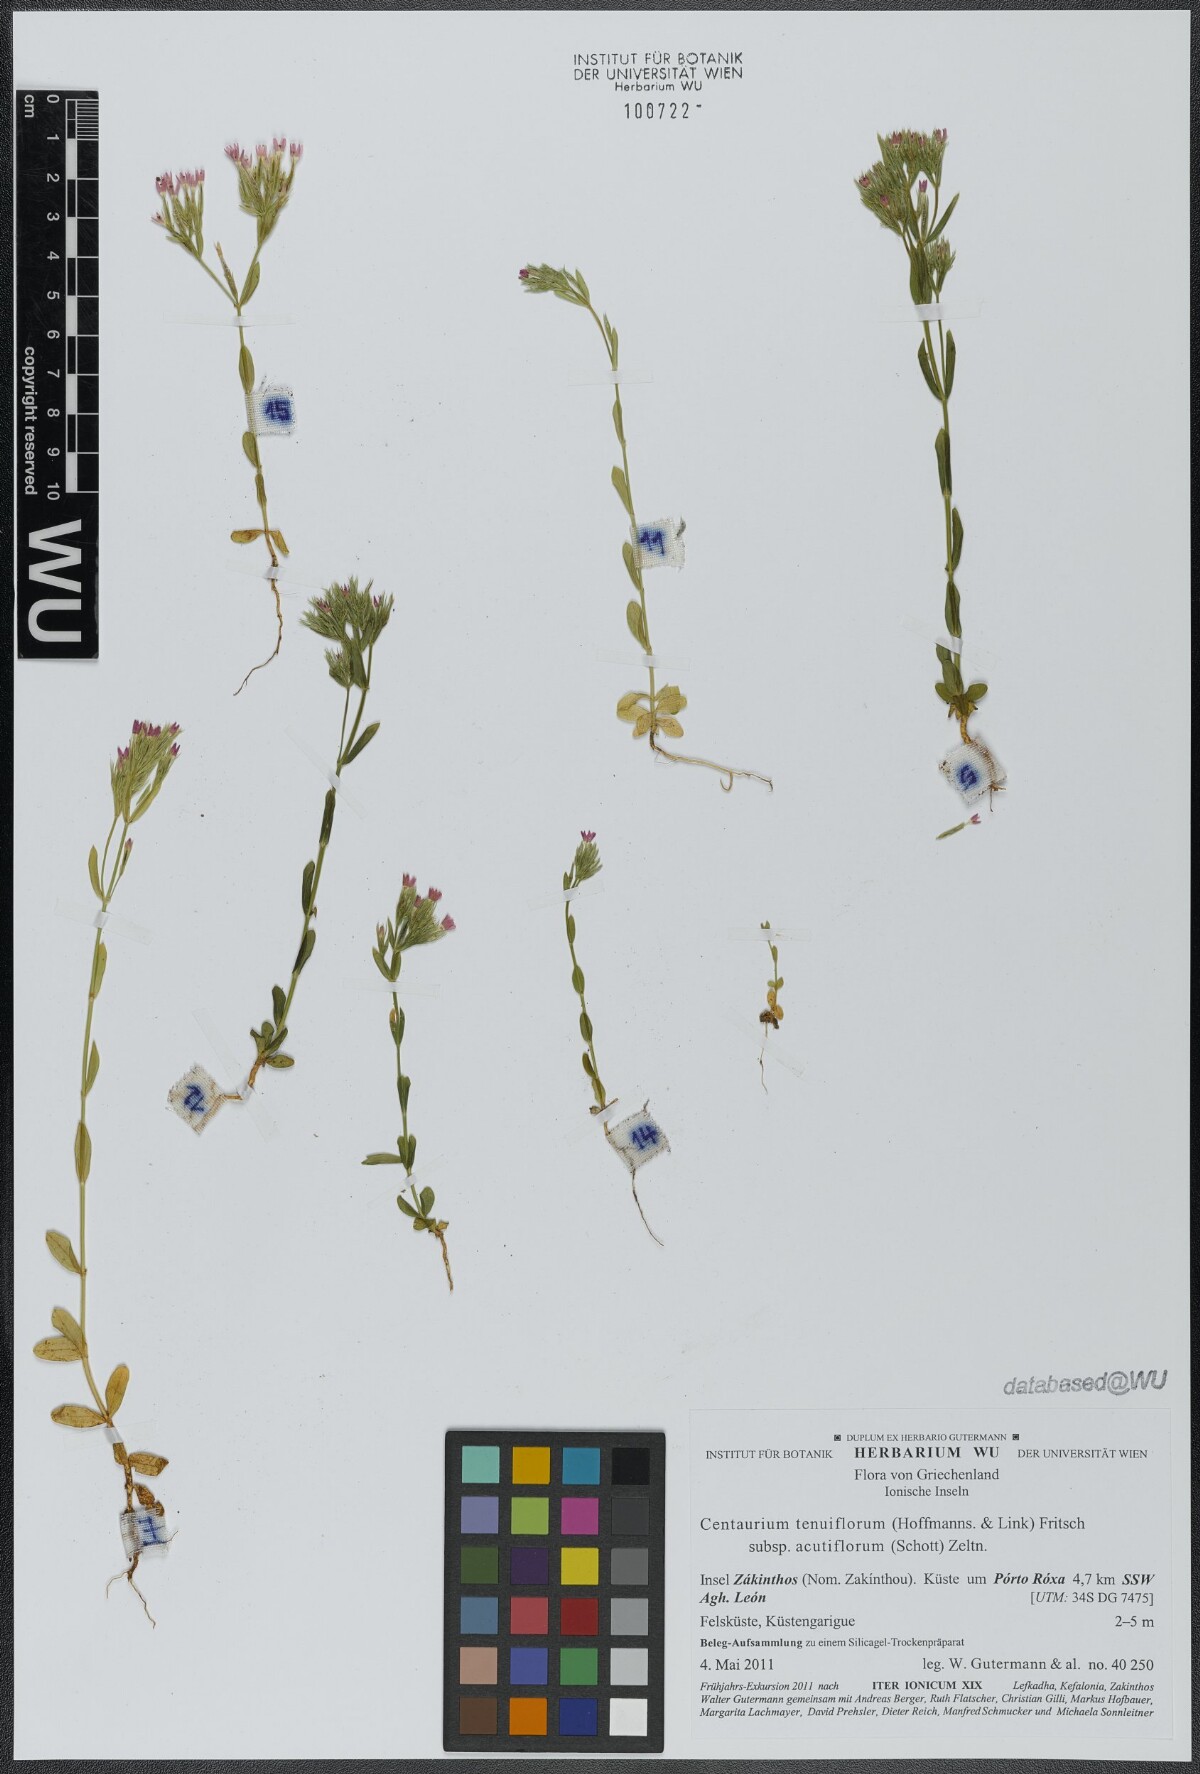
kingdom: Plantae
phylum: Tracheophyta
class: Magnoliopsida
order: Gentianales
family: Gentianaceae
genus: Centaurium
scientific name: Centaurium tenuiflorum
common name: Slender centaury
